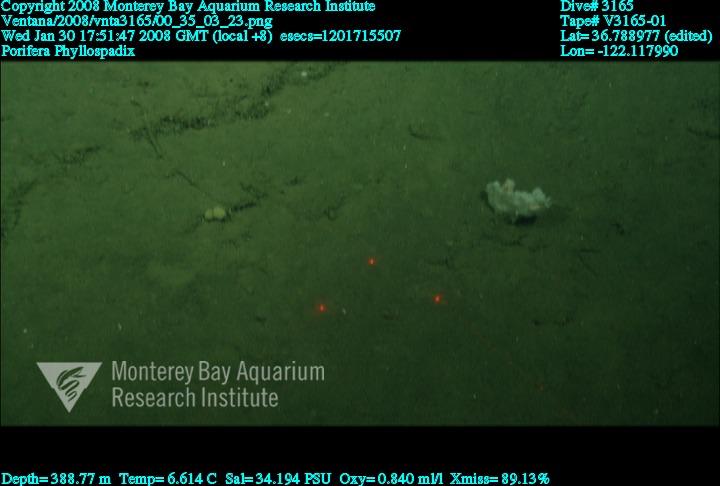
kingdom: Animalia
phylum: Porifera
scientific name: Porifera
